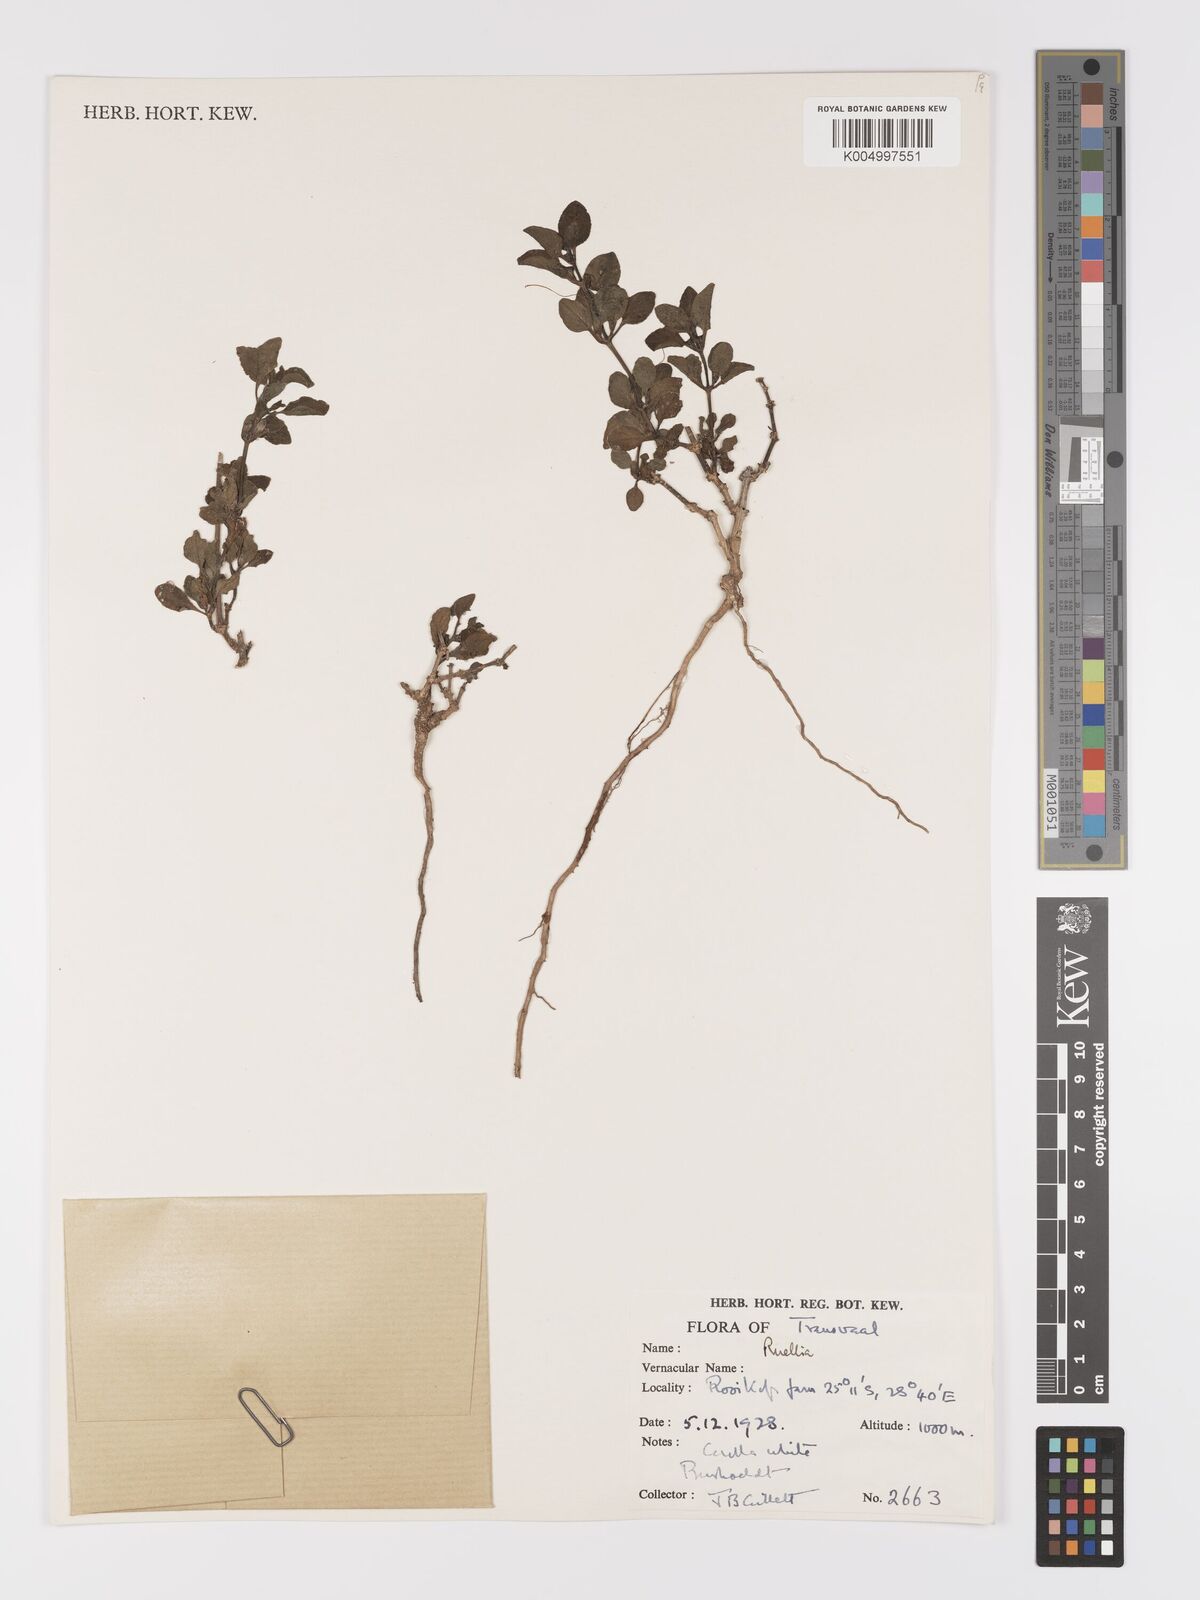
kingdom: Plantae
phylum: Tracheophyta
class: Magnoliopsida
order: Lamiales
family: Acanthaceae
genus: Ruellia
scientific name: Ruellia patula
